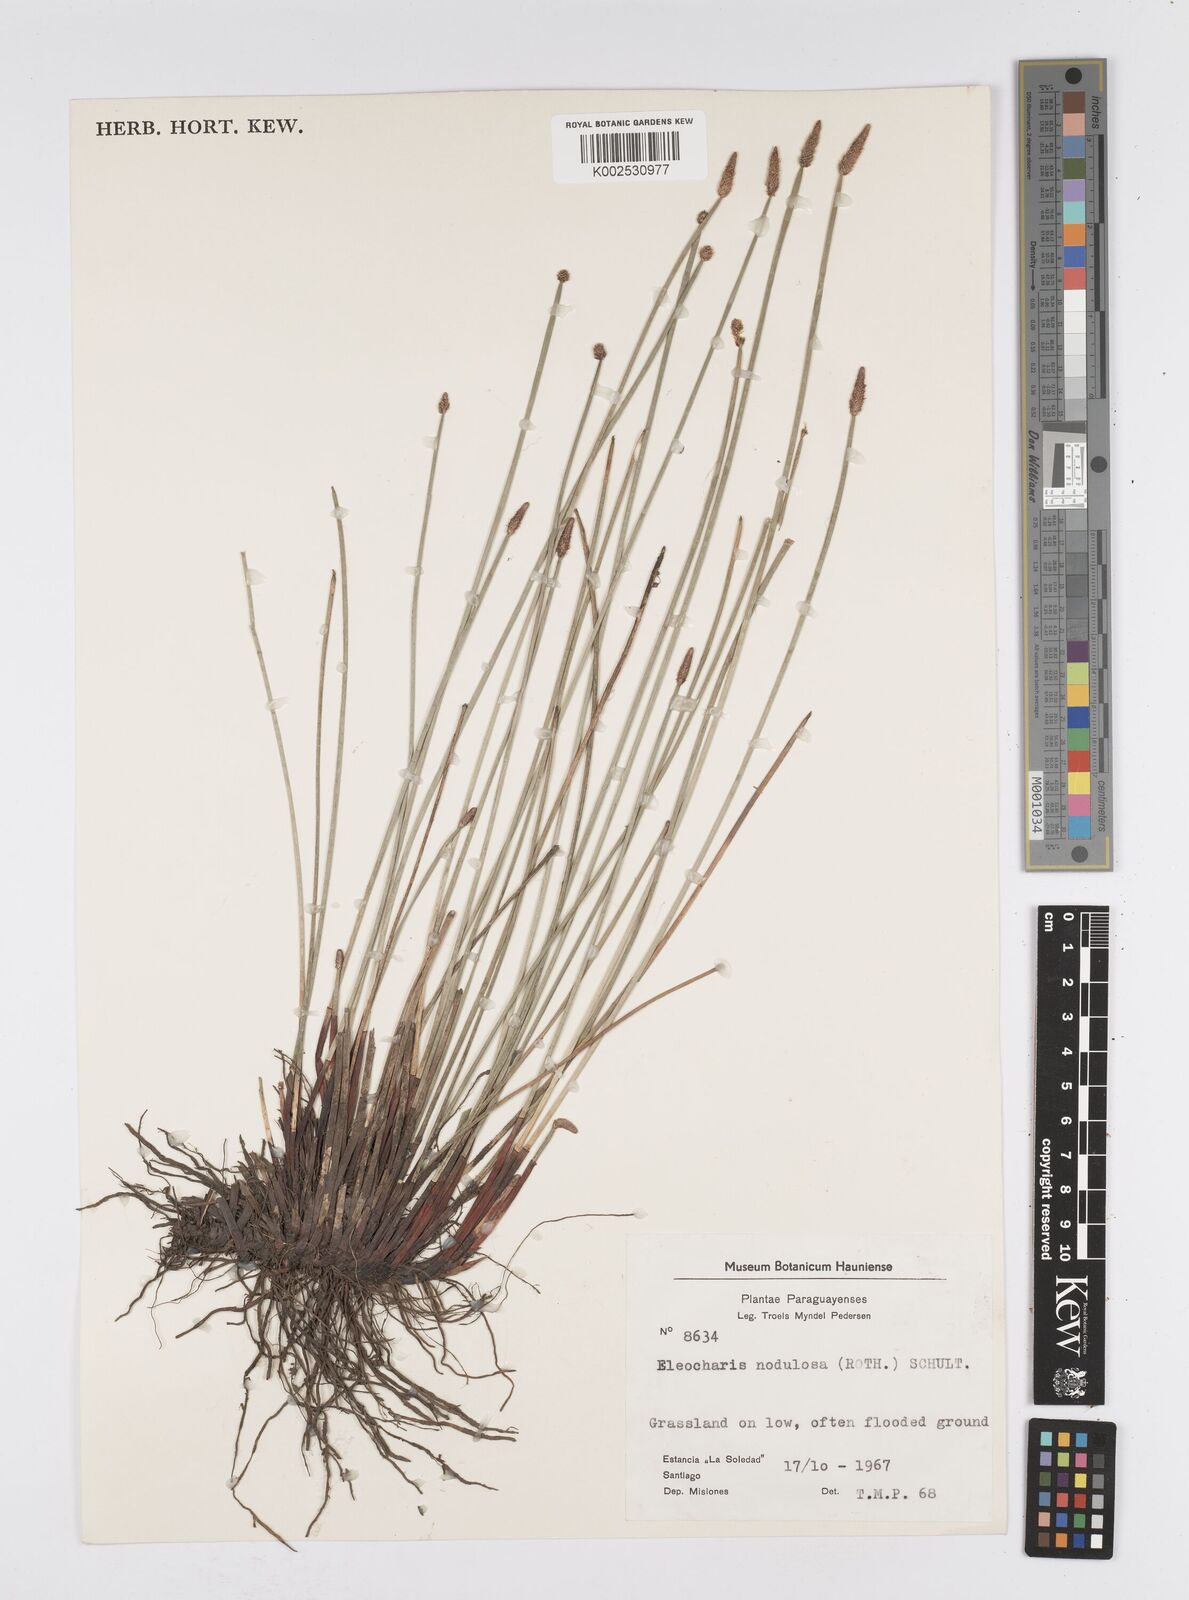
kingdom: Plantae
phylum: Tracheophyta
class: Liliopsida
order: Poales
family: Cyperaceae
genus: Eleocharis
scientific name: Eleocharis montana
